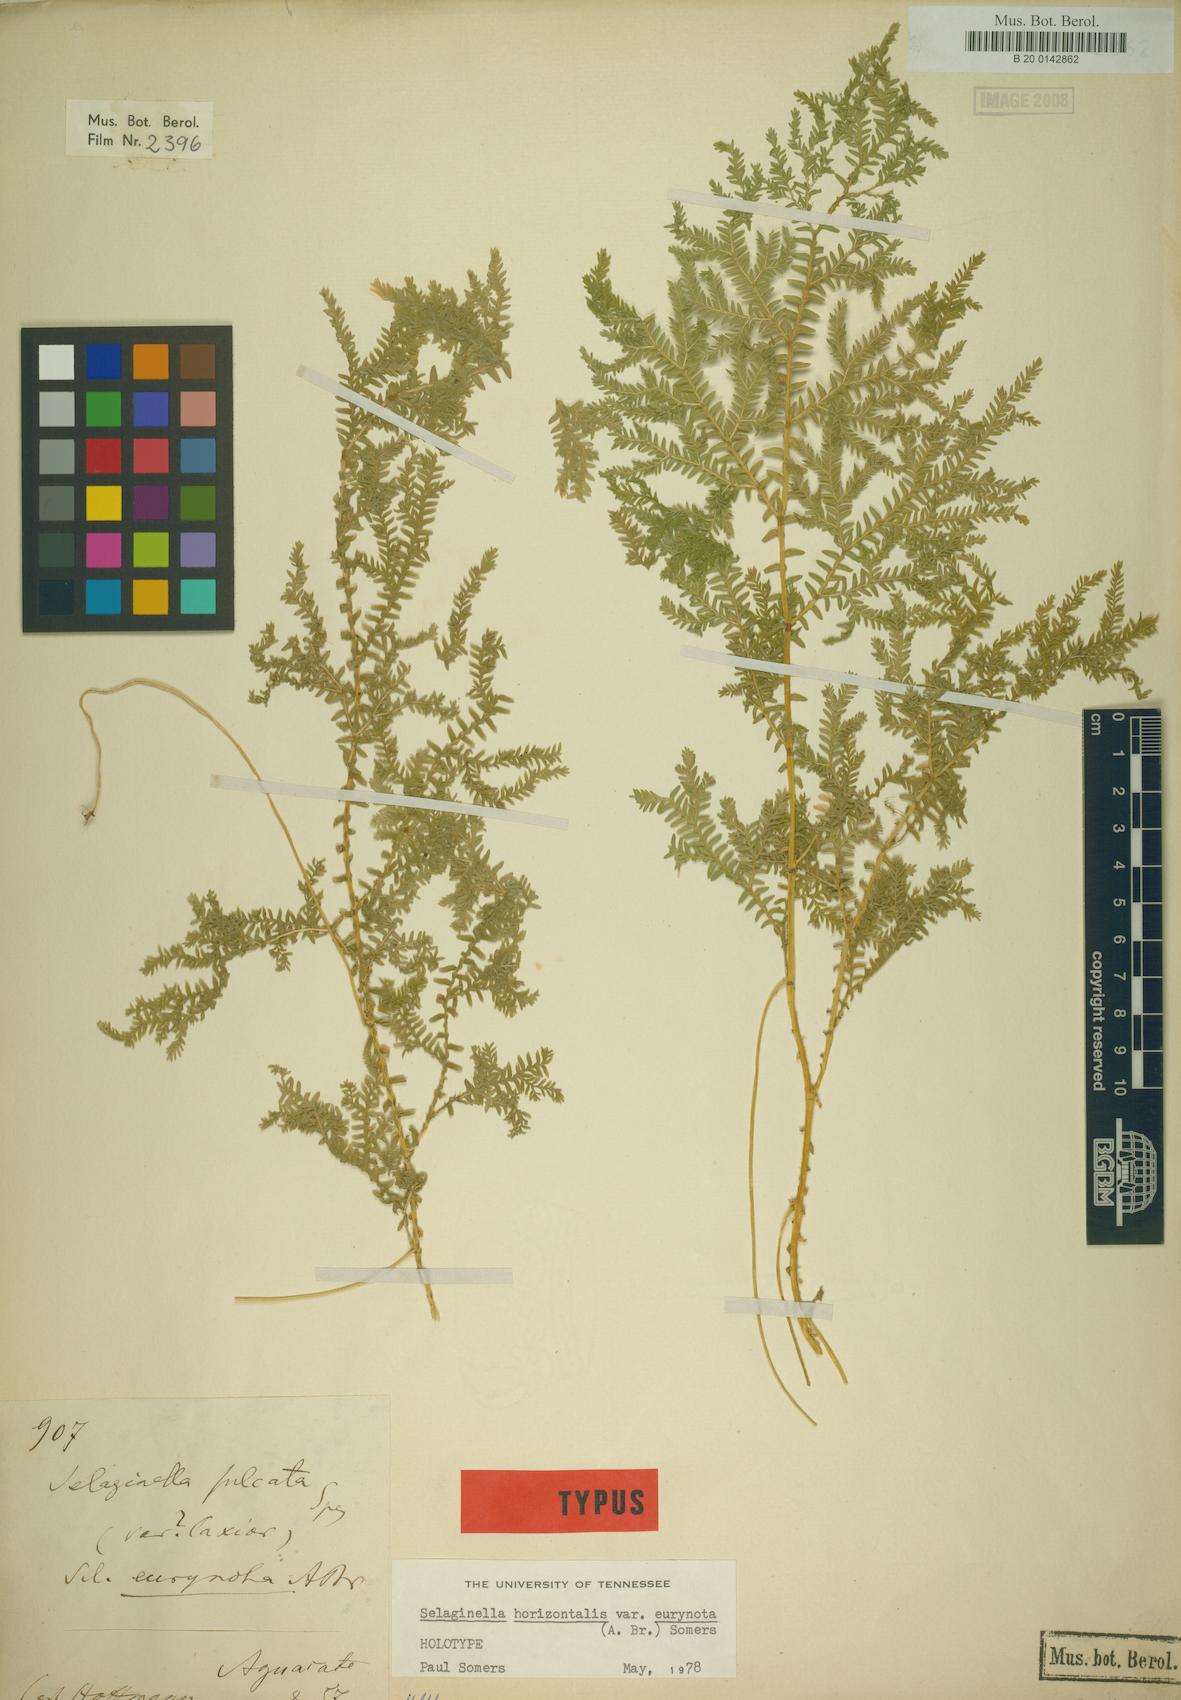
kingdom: Plantae
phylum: Tracheophyta
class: Lycopodiopsida
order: Selaginellales
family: Selaginellaceae
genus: Selaginella
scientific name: Selaginella eurynota
